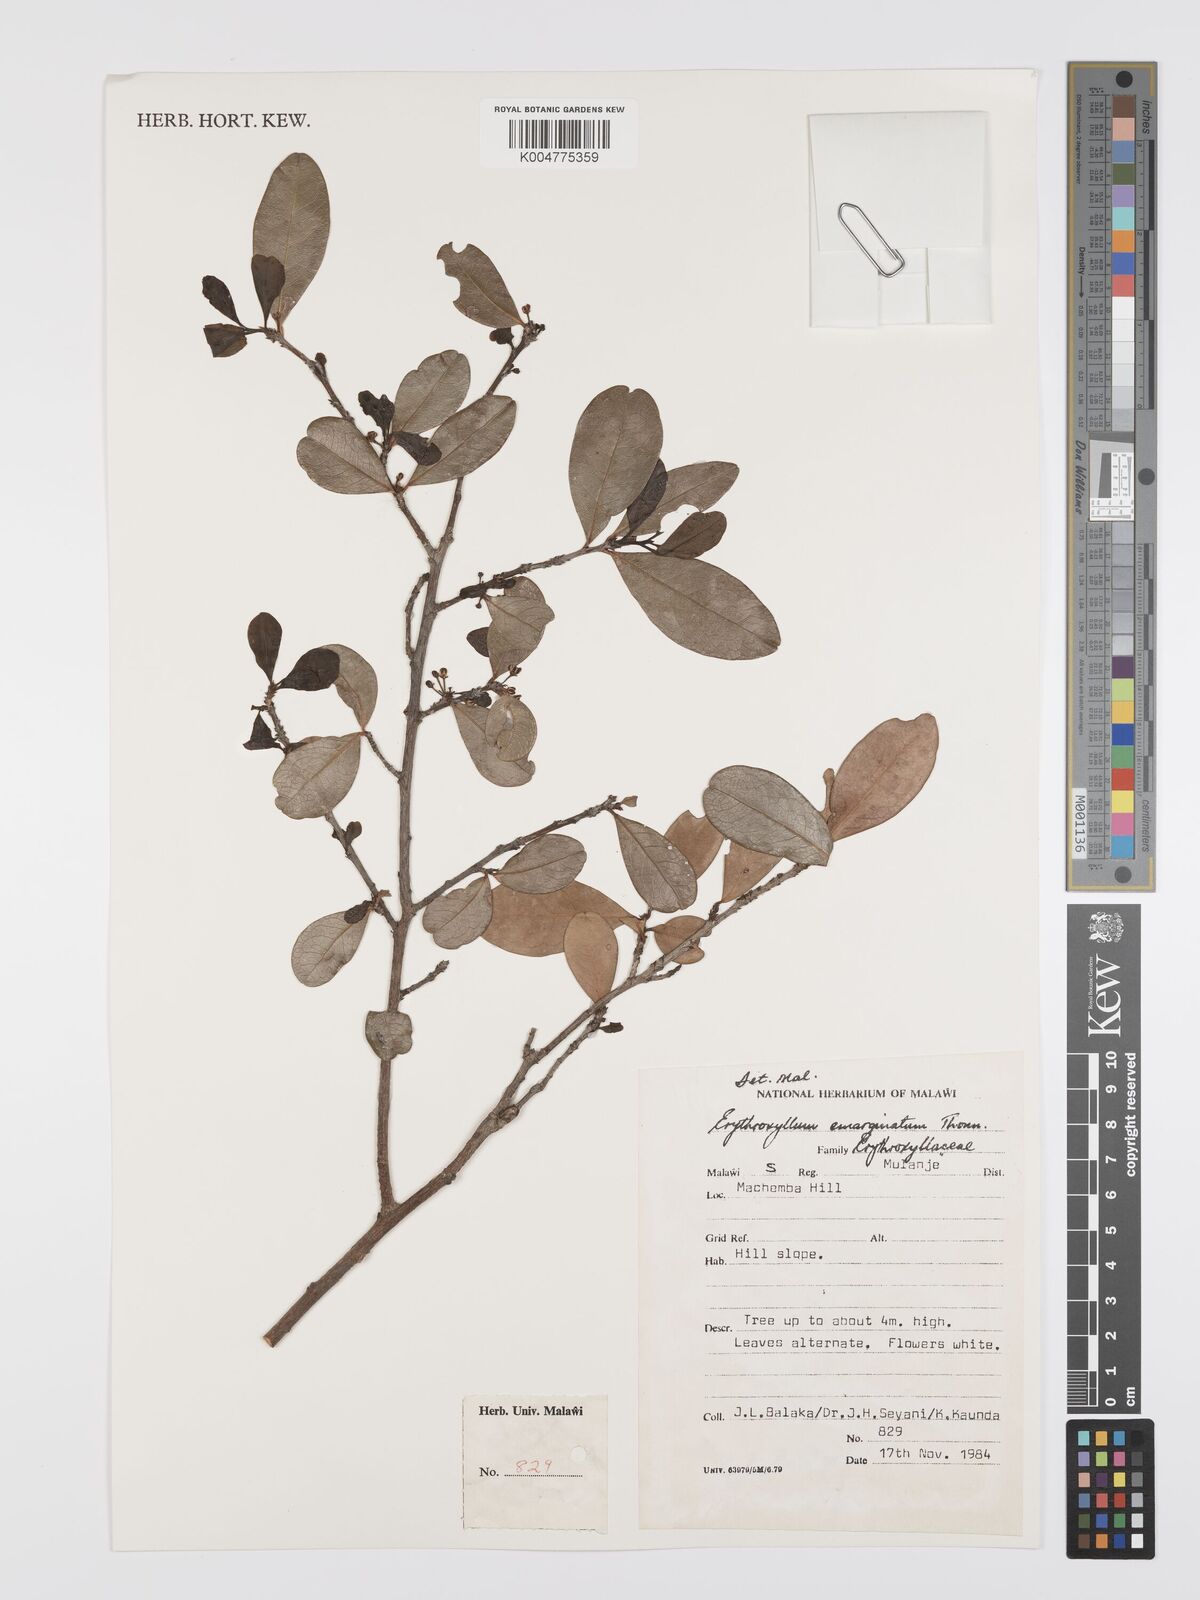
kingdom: Plantae
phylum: Tracheophyta
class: Magnoliopsida
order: Malpighiales
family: Erythroxylaceae
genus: Erythroxylum
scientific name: Erythroxylum emarginatum
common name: African coca-tree
